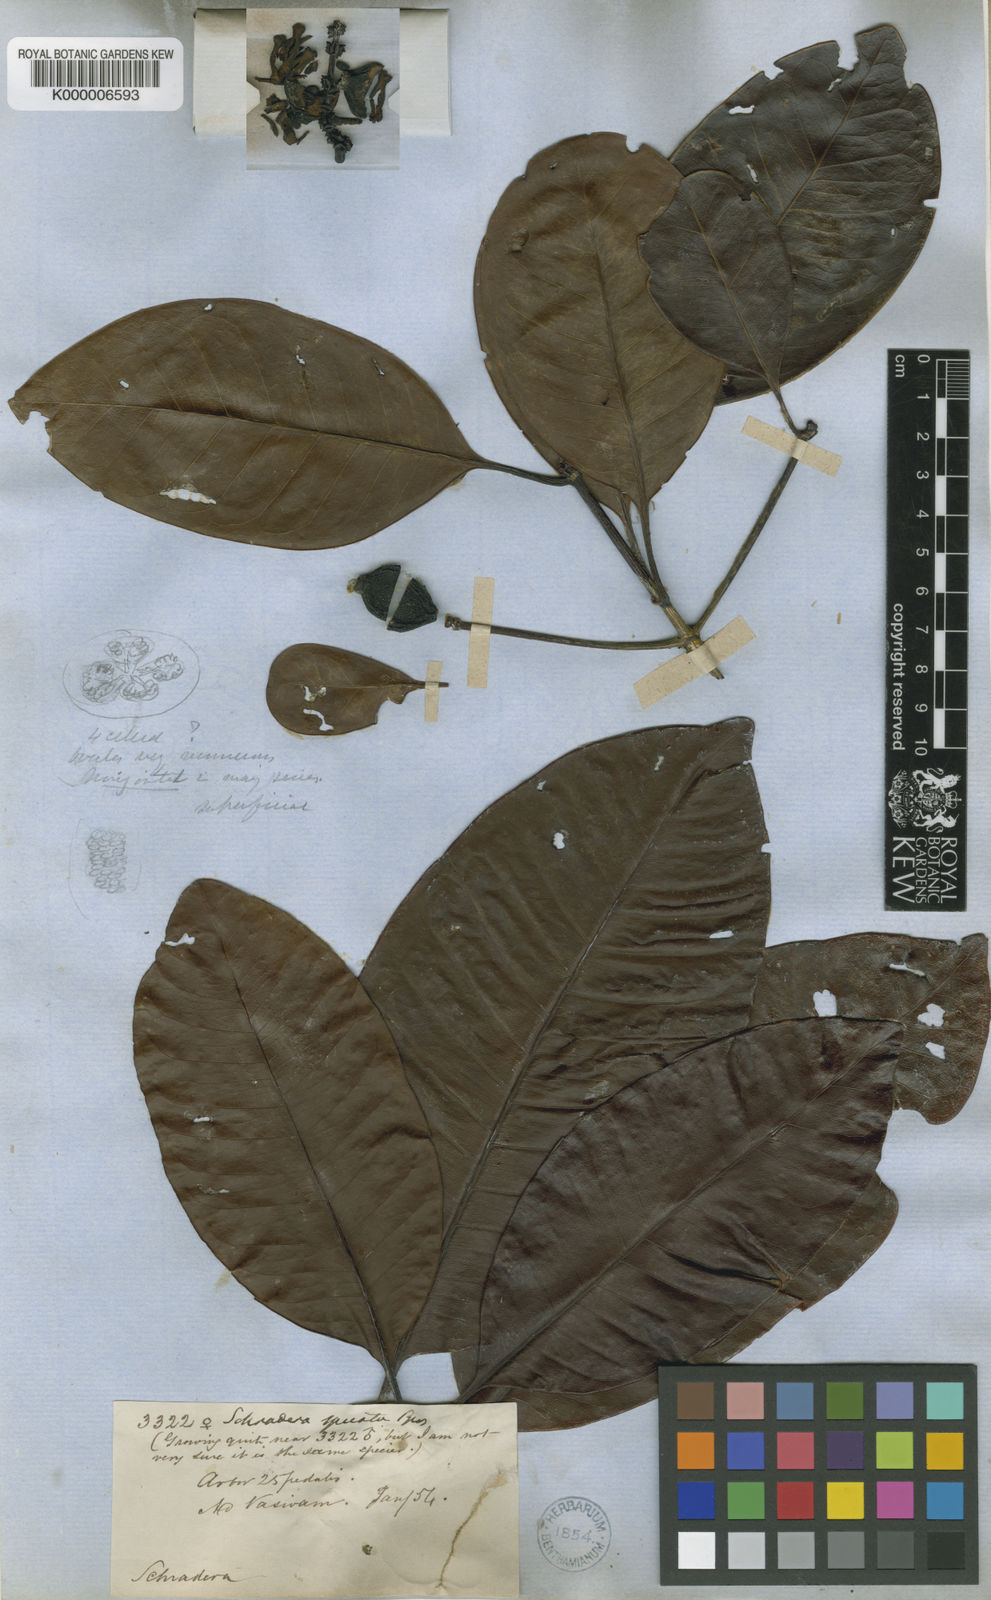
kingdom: Plantae
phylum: Tracheophyta
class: Magnoliopsida
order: Gentianales
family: Rubiaceae
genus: Stachyarrhena
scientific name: Stachyarrhena spicata
